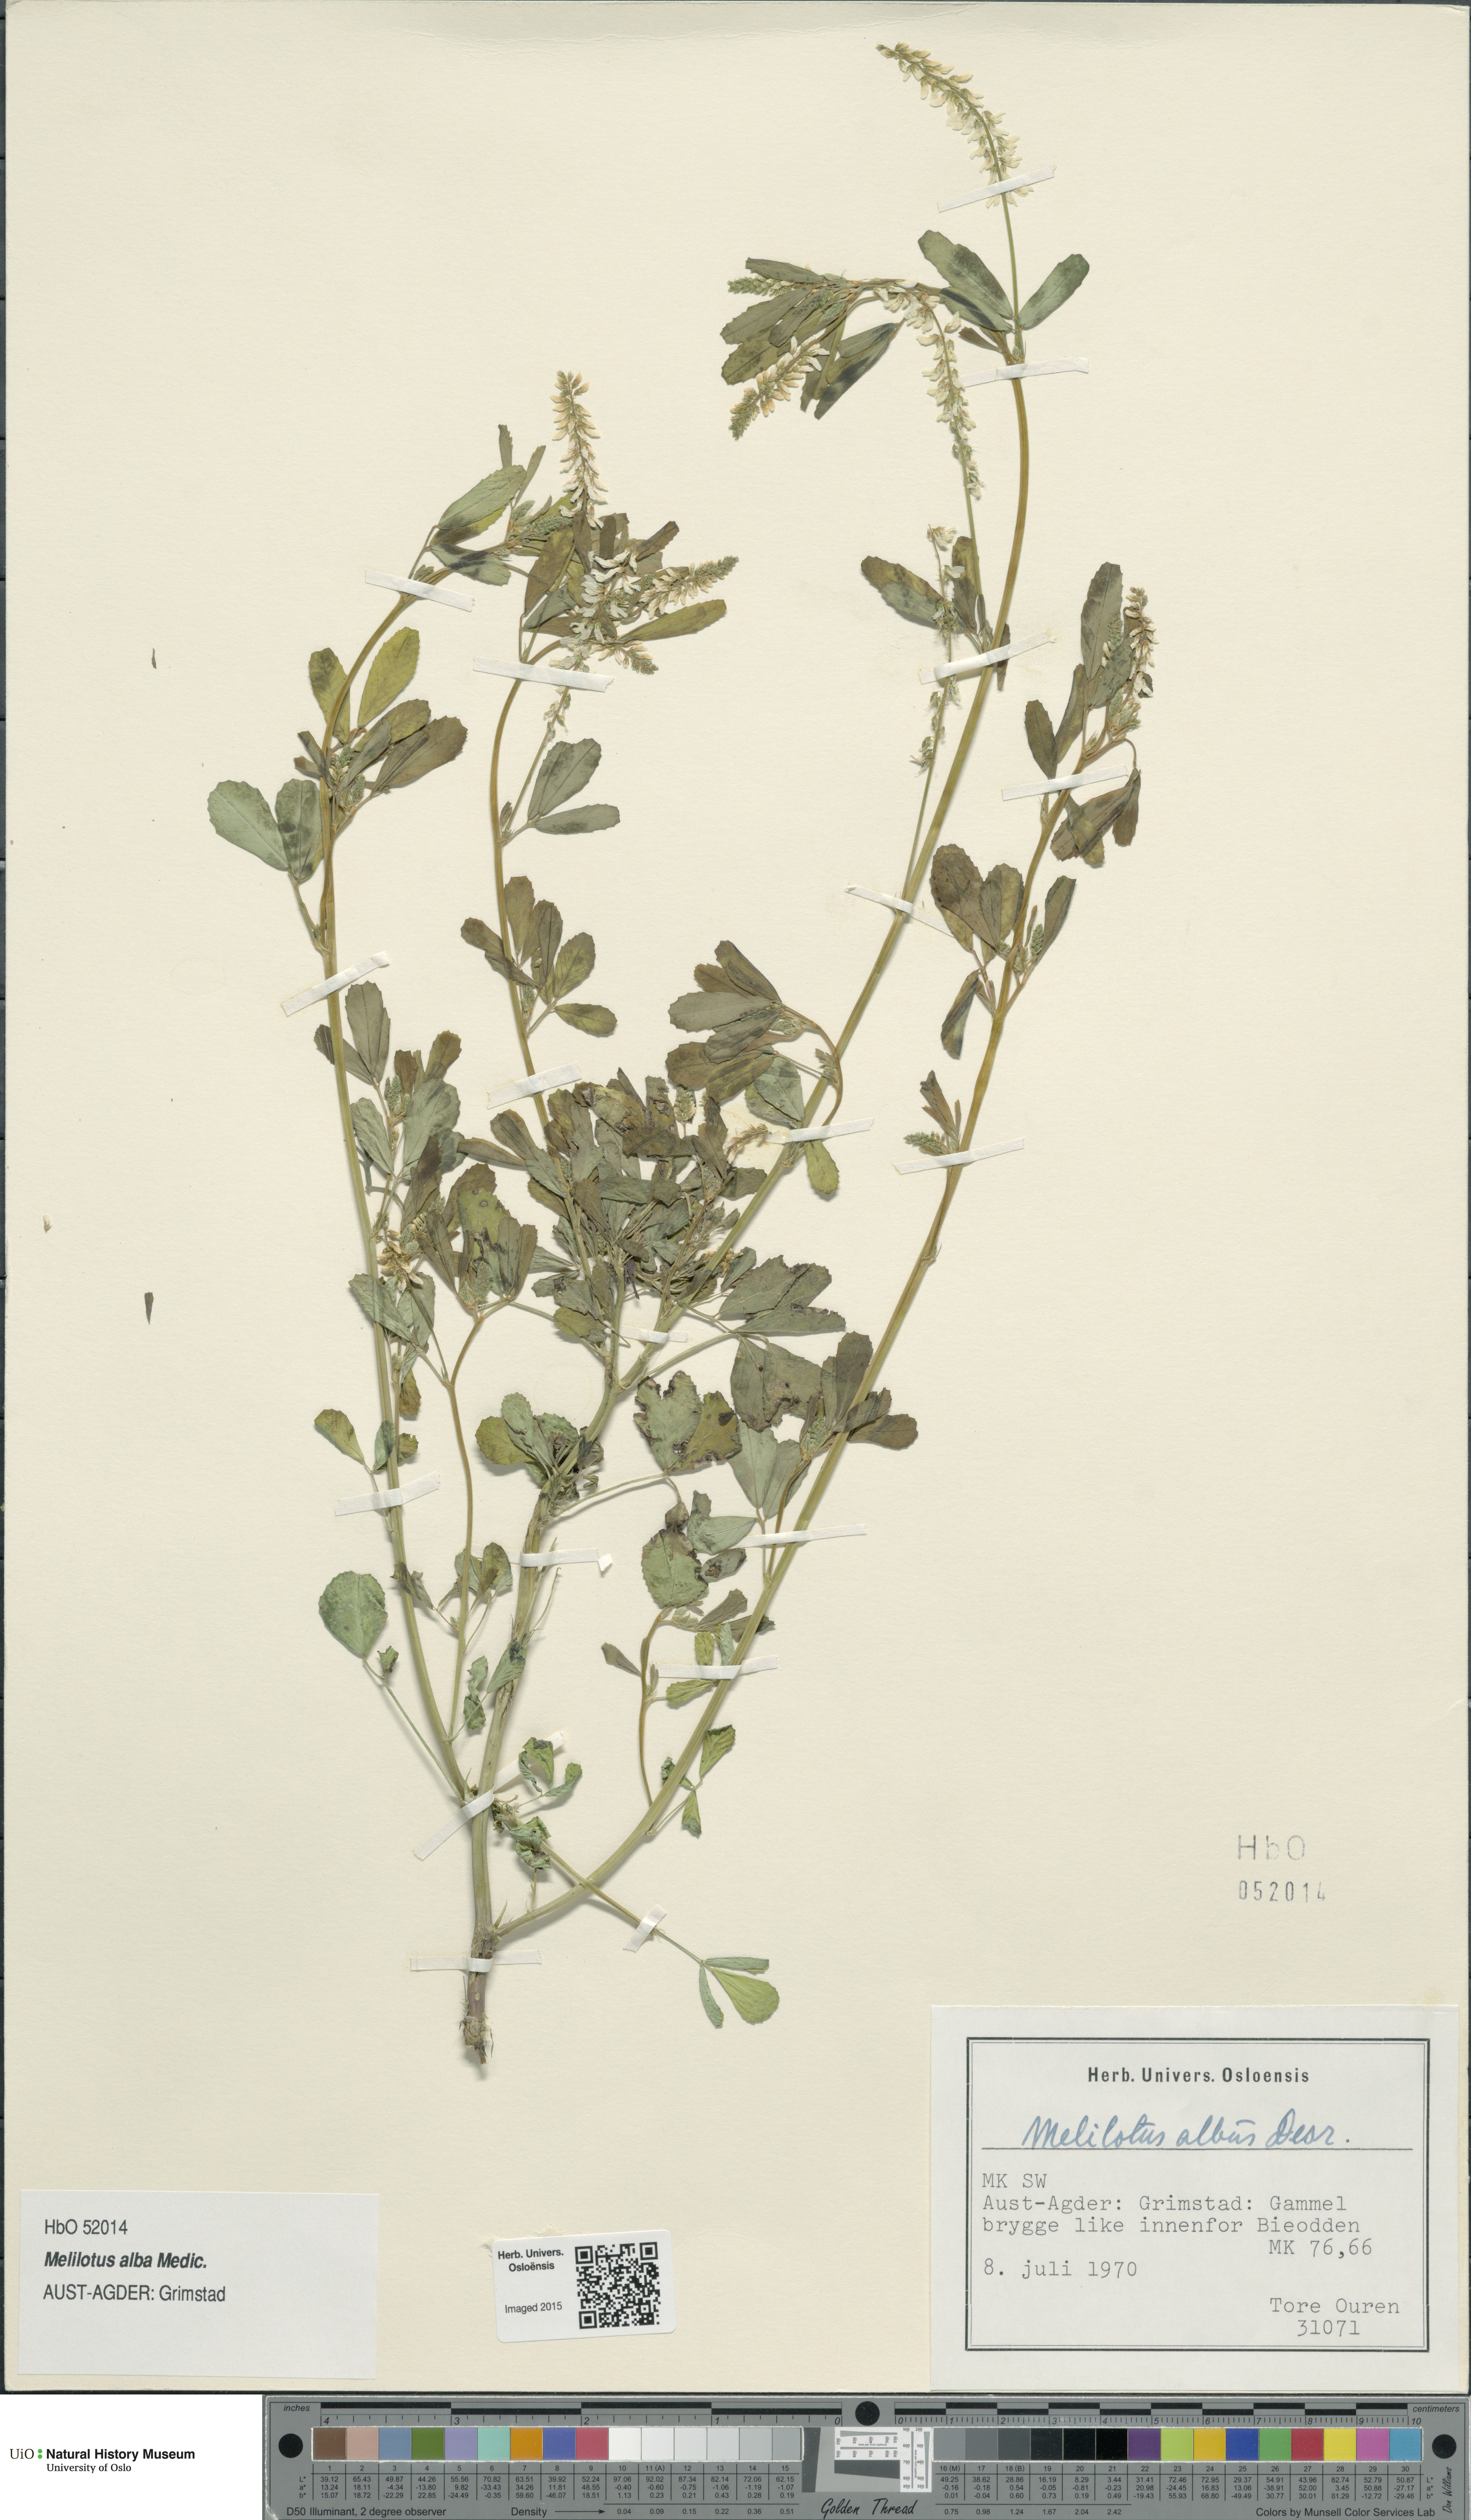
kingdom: Plantae
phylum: Tracheophyta
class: Magnoliopsida
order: Fabales
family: Fabaceae
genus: Melilotus
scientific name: Melilotus albus
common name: White melilot
